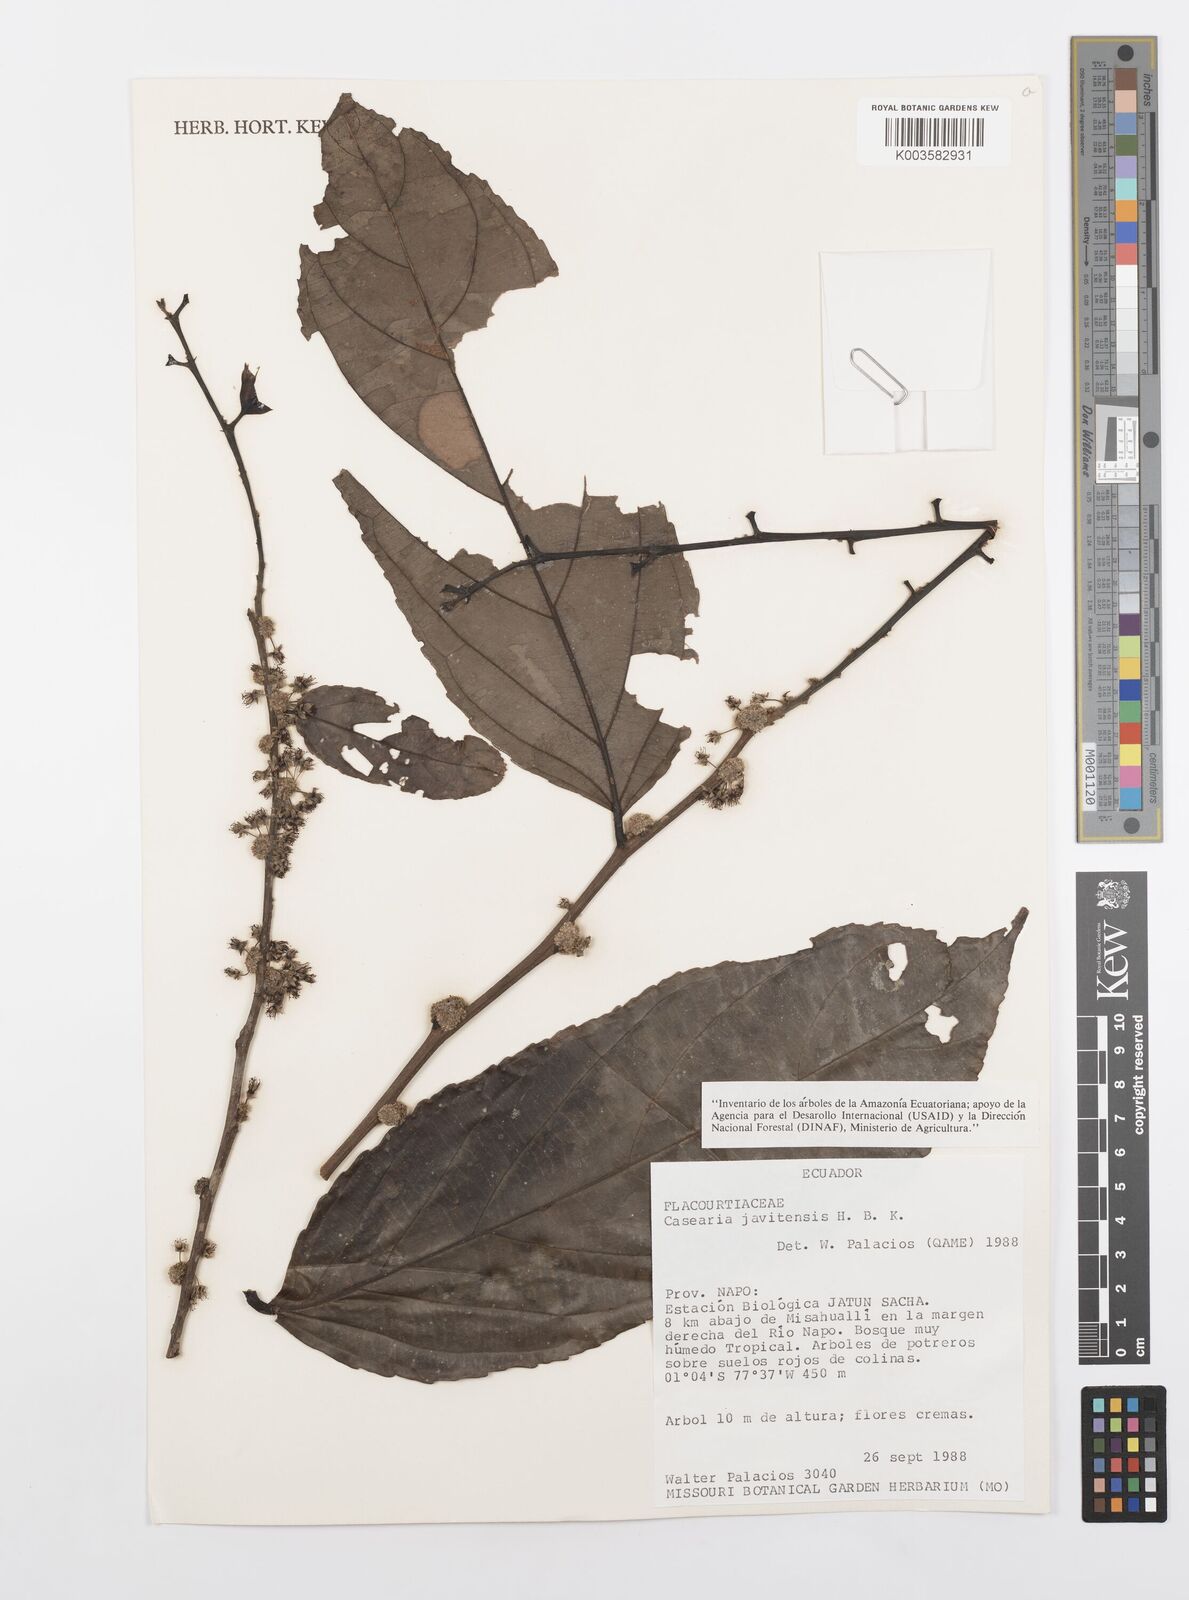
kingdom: Plantae
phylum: Tracheophyta
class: Magnoliopsida
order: Malpighiales
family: Salicaceae
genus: Piparea
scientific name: Piparea multiflora
